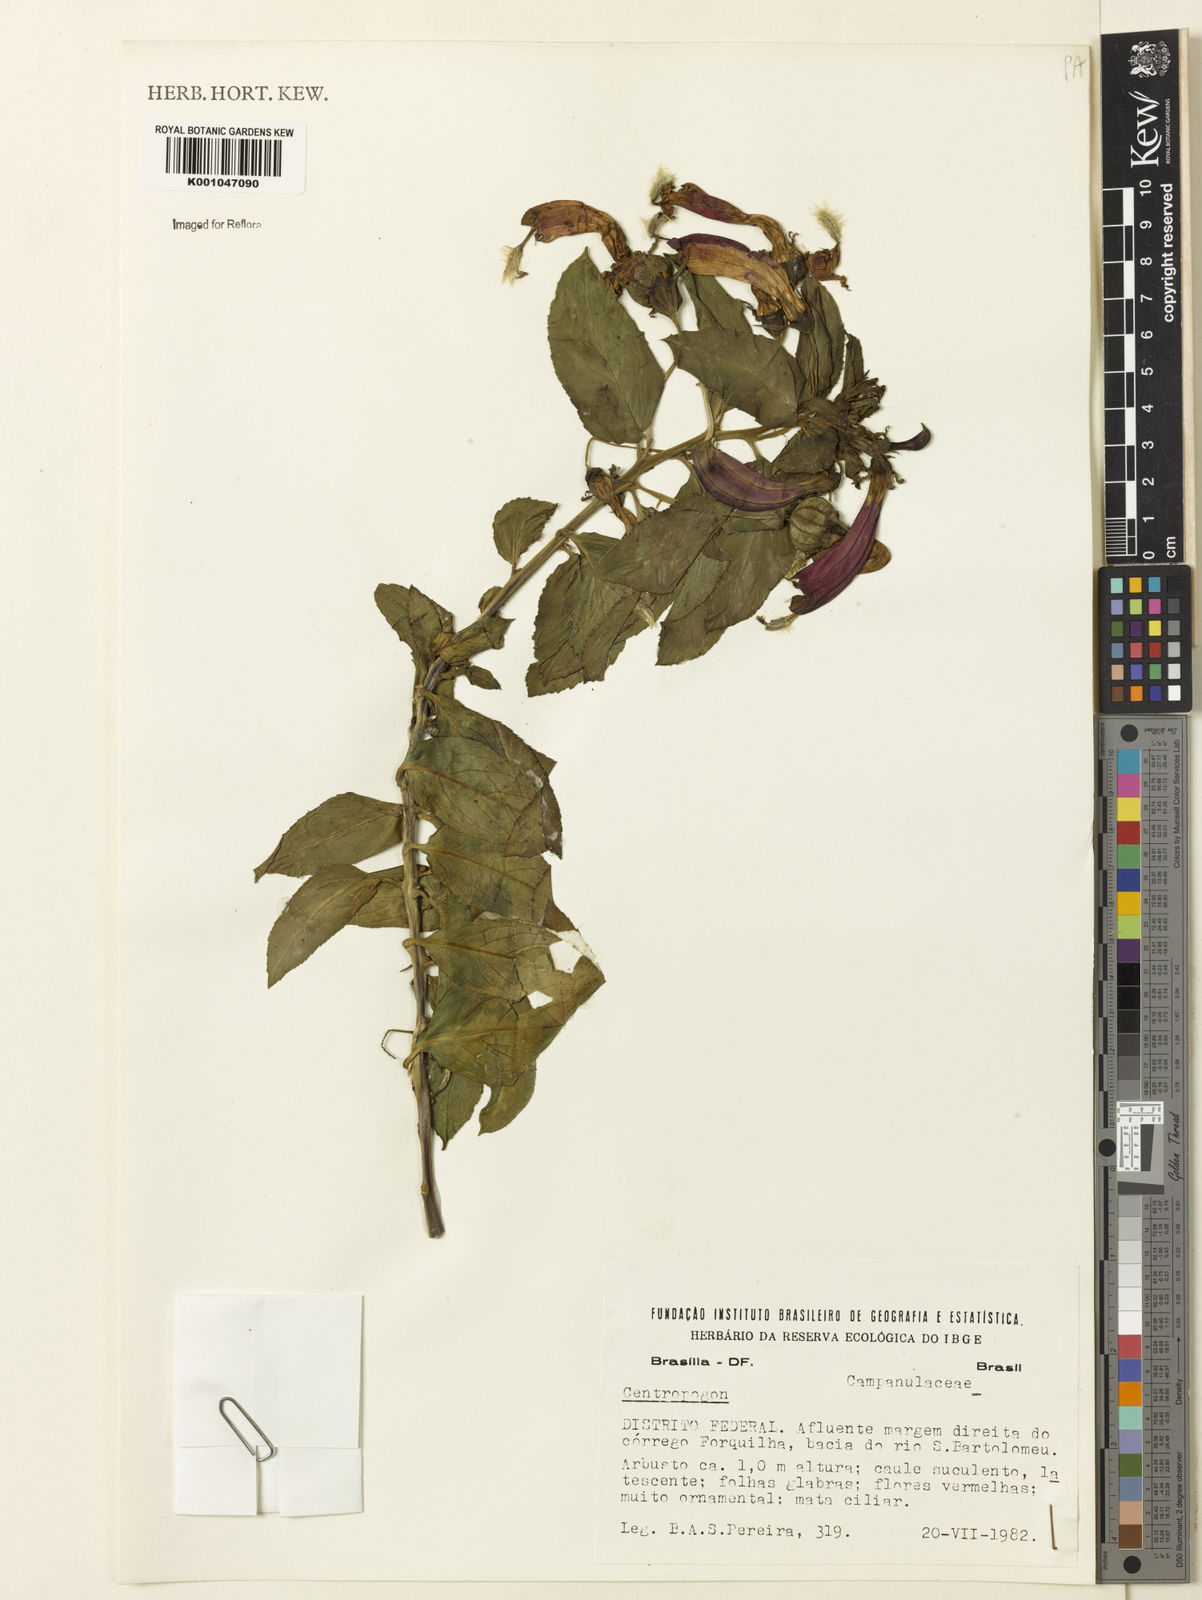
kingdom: Plantae
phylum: Tracheophyta
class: Magnoliopsida
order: Asterales
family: Campanulaceae
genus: Centropogon
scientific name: Centropogon
